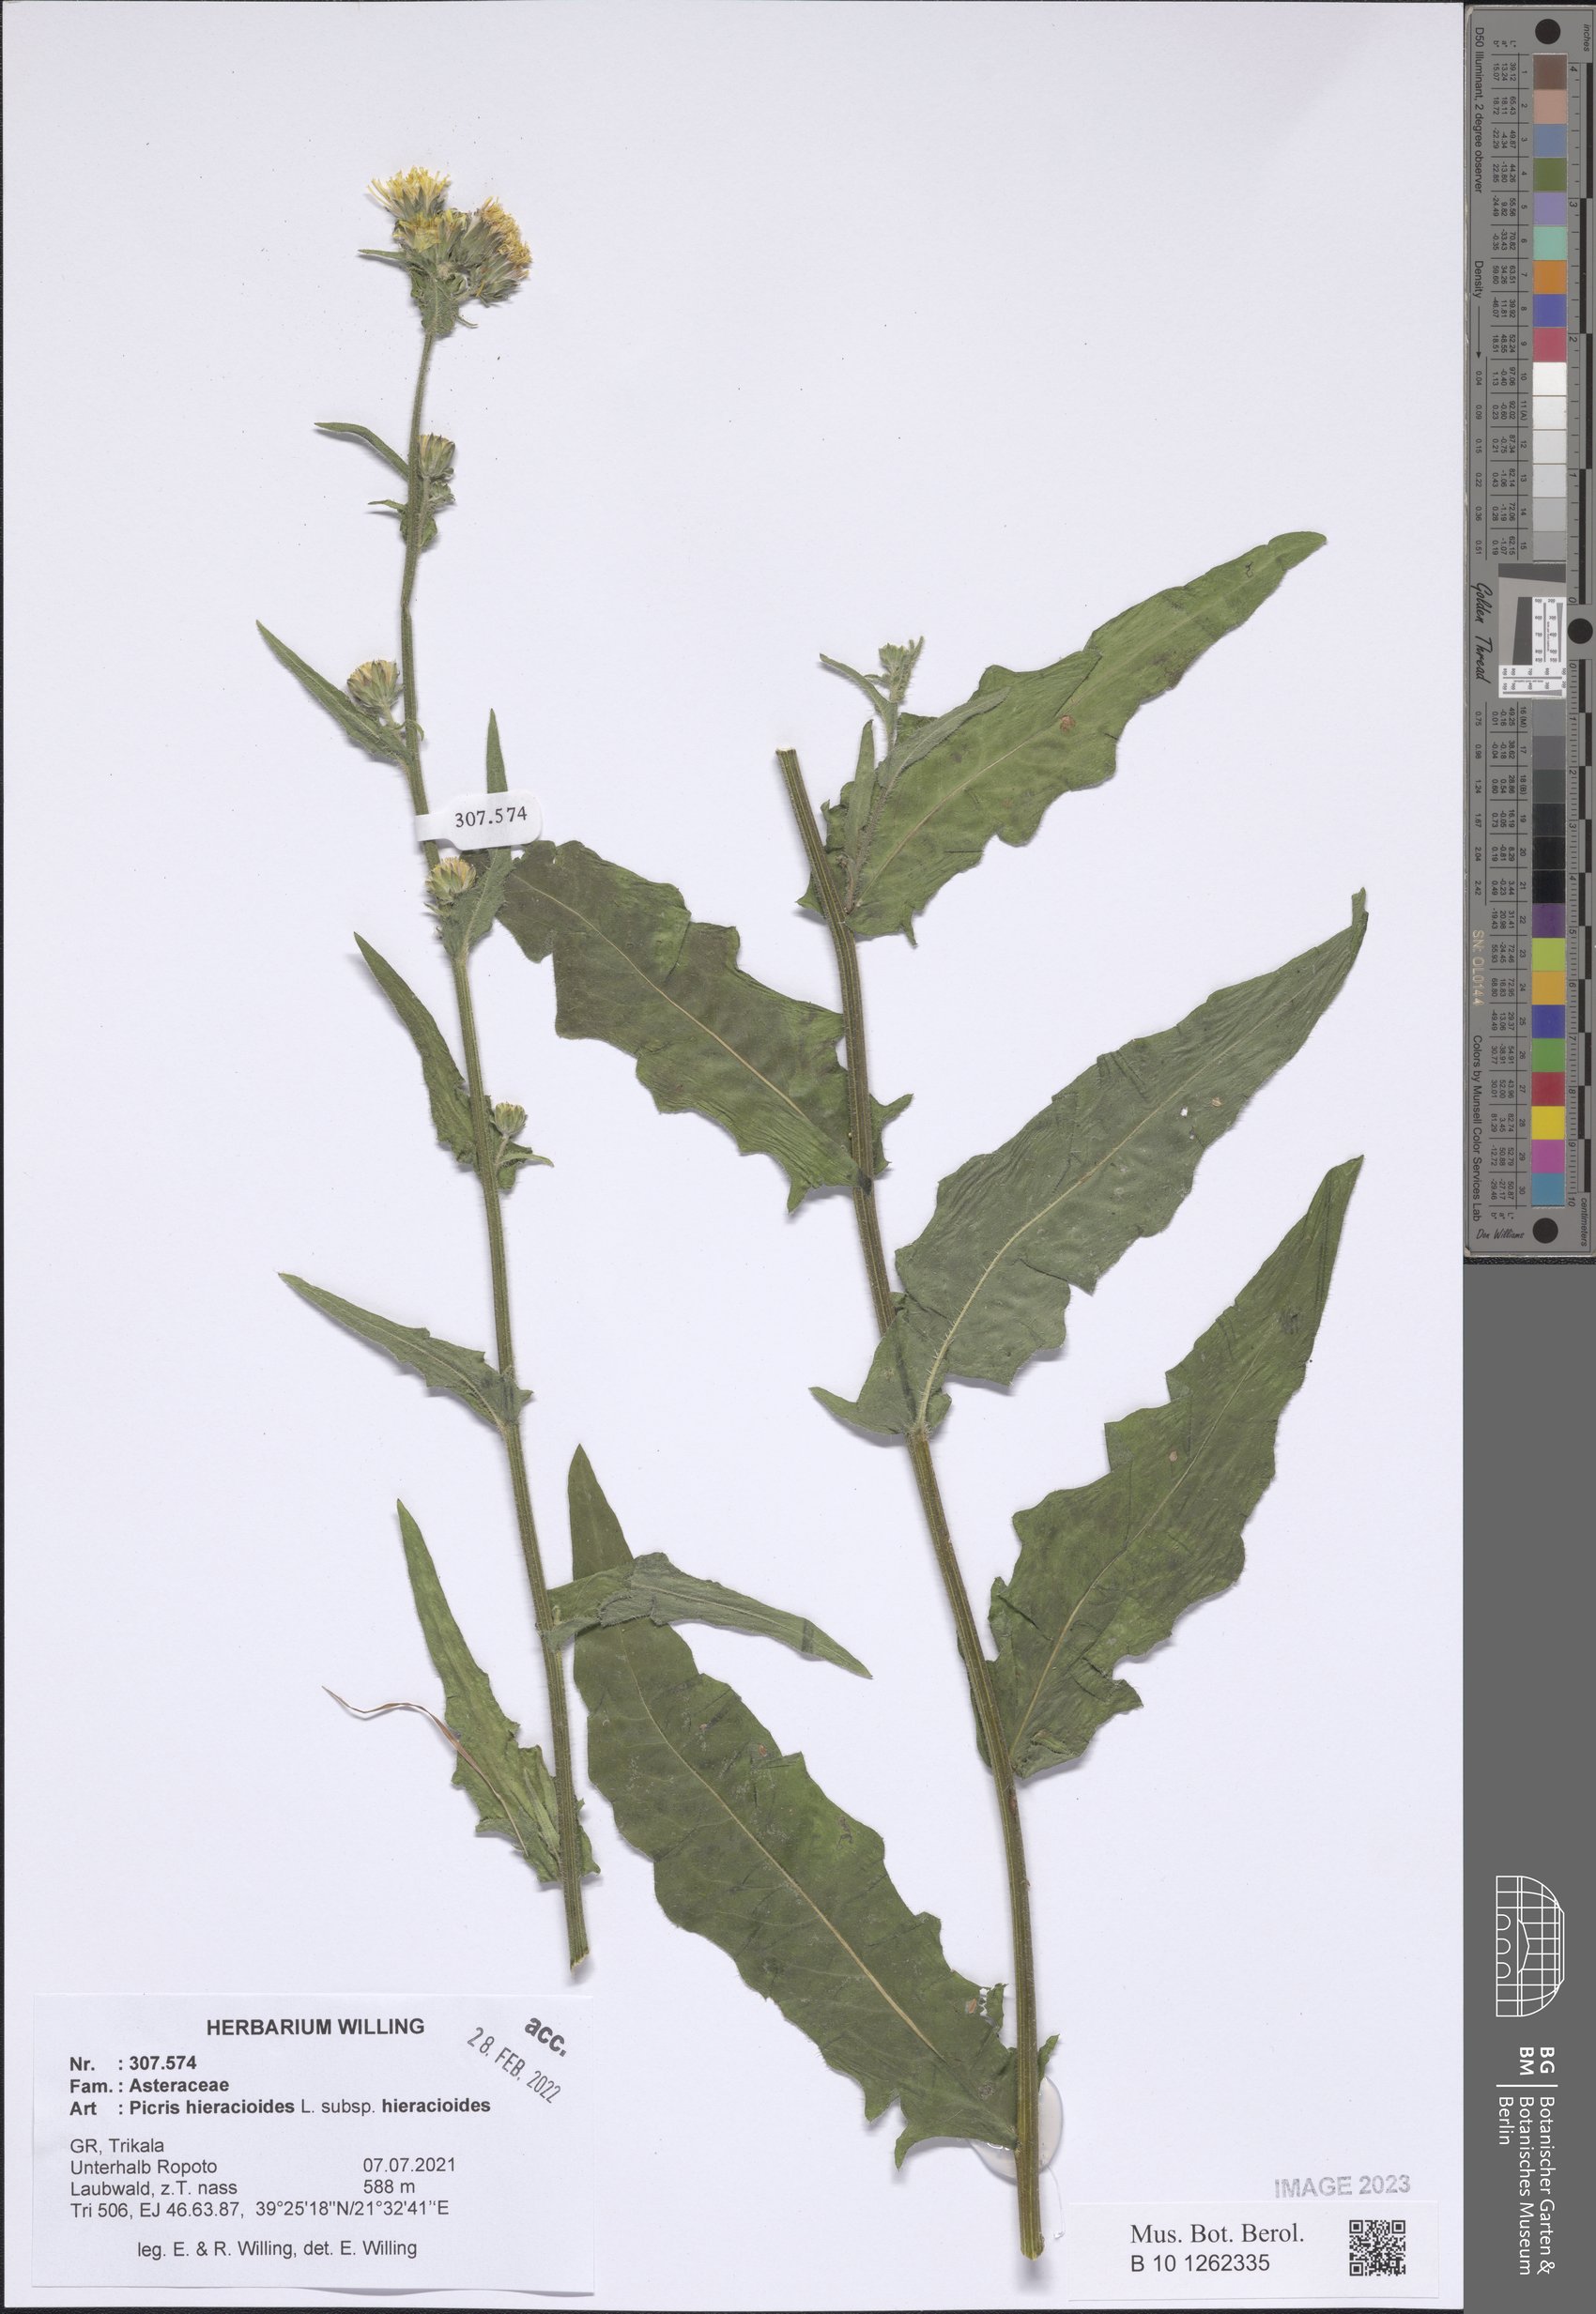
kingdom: Plantae
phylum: Tracheophyta
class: Magnoliopsida
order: Asterales
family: Asteraceae
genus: Picris
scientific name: Picris hieracioides
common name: Hawkweed oxtongue
